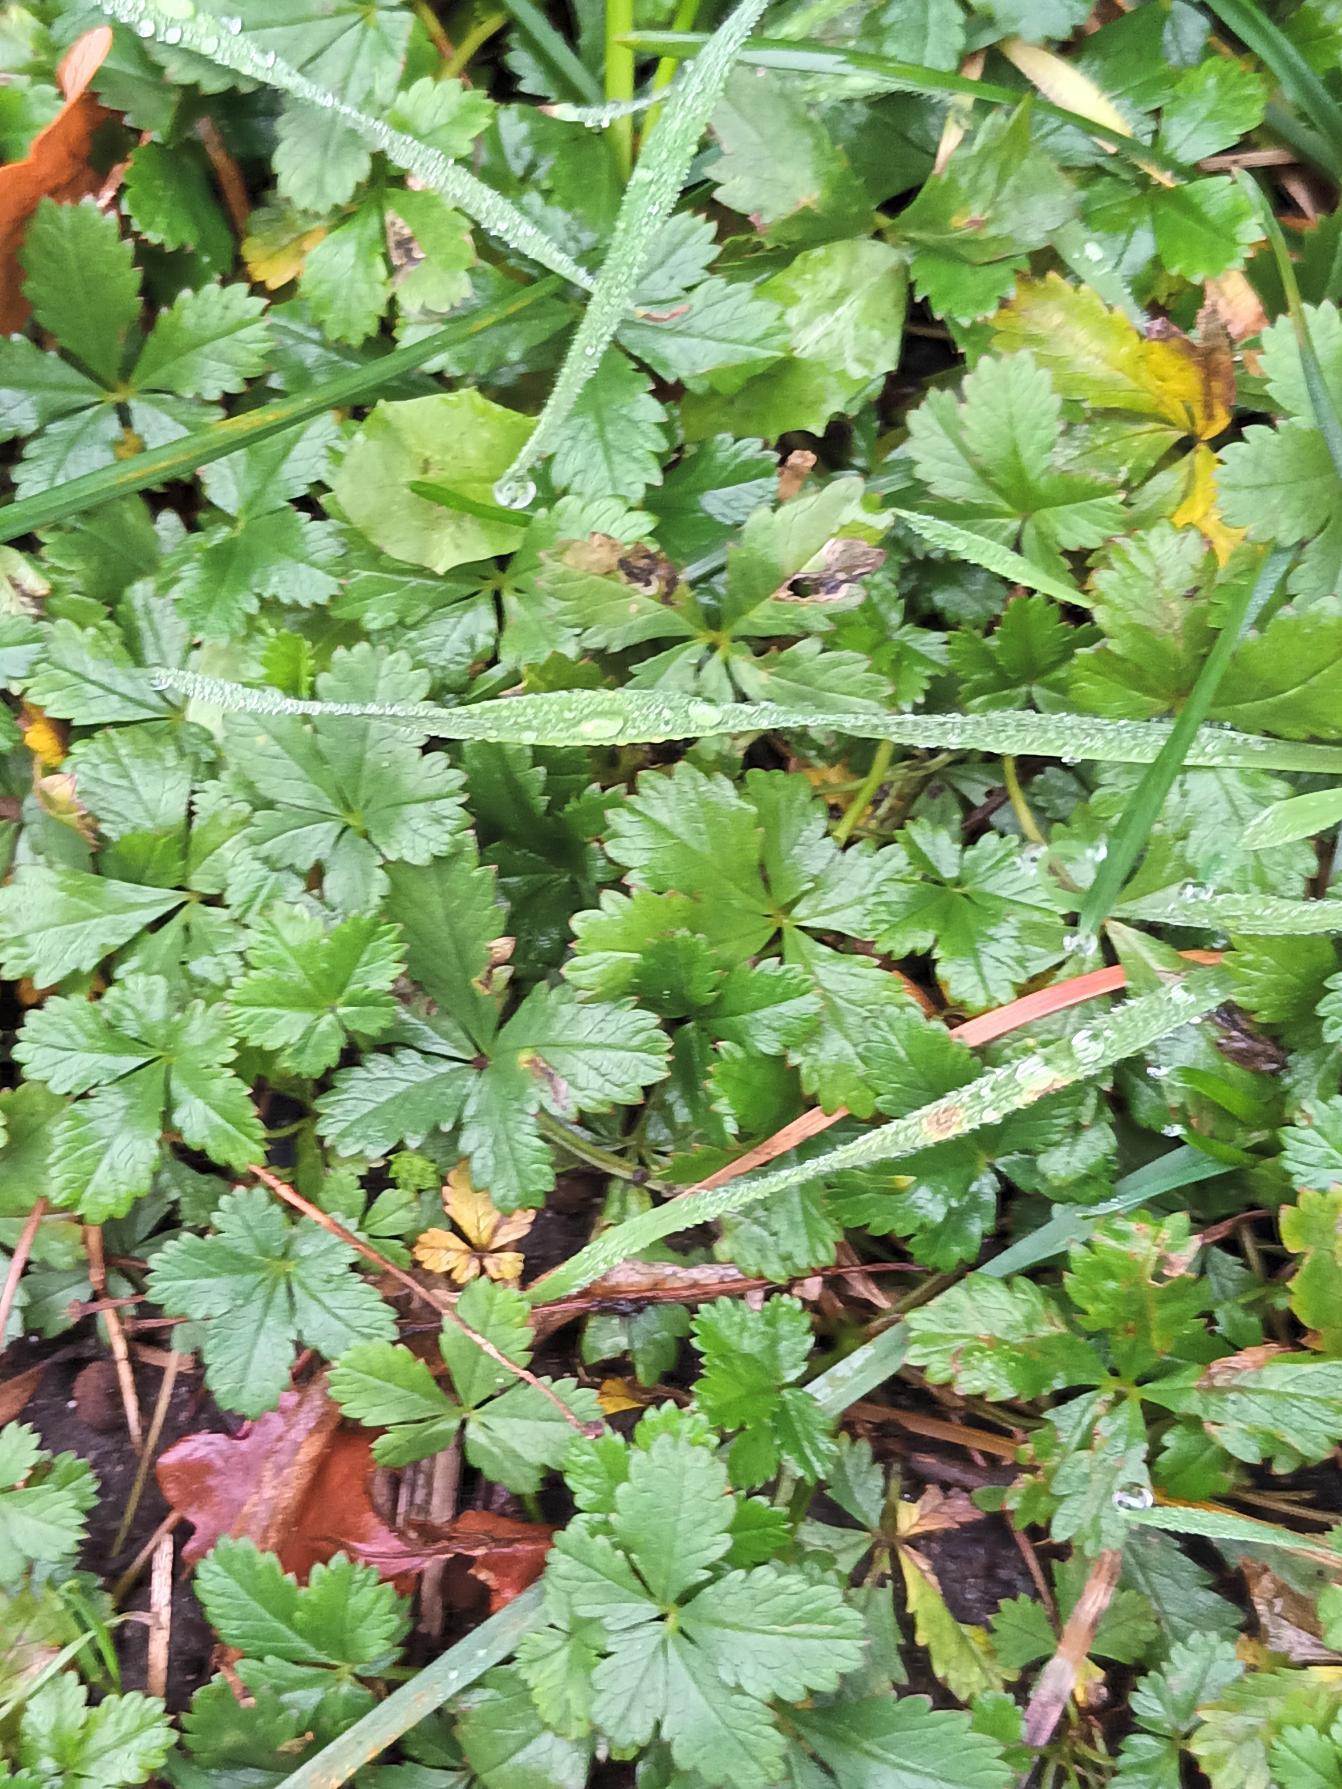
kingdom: Plantae
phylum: Tracheophyta
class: Magnoliopsida
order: Rosales
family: Rosaceae
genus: Potentilla
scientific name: Potentilla reptans
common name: Krybende potentil
